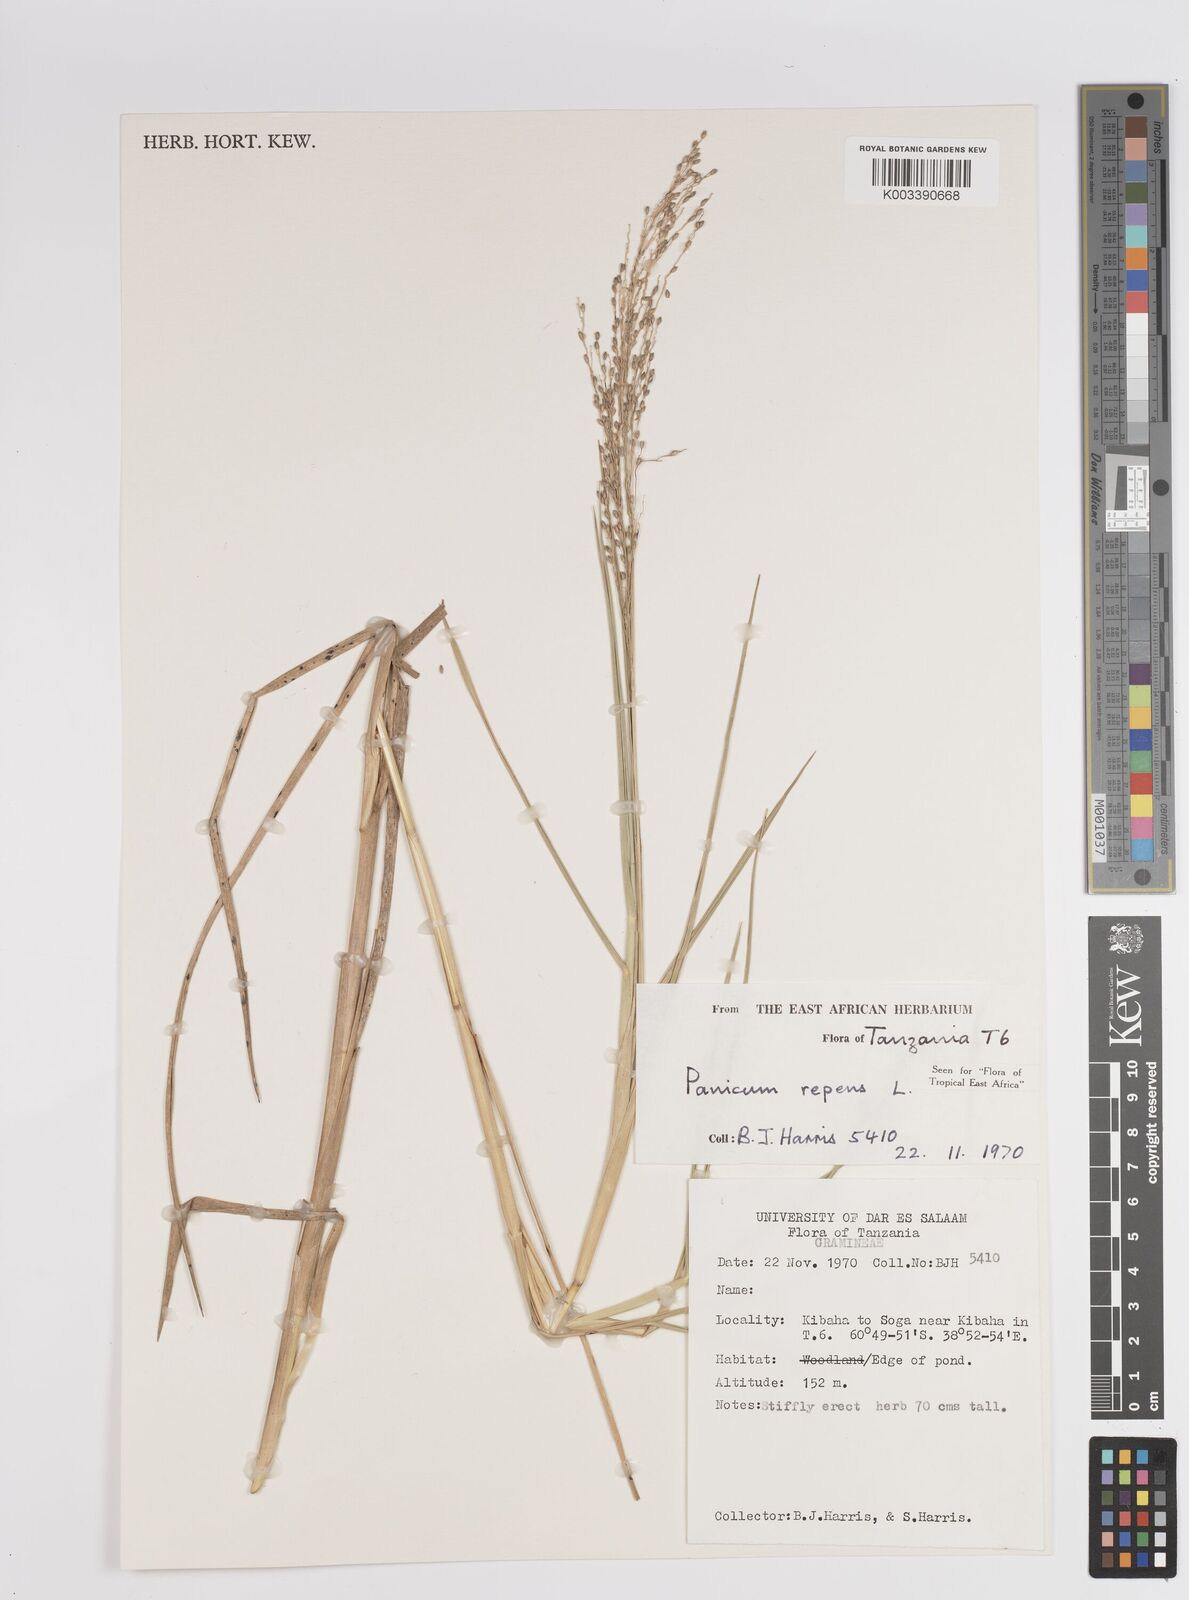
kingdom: Plantae
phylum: Tracheophyta
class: Liliopsida
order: Poales
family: Poaceae
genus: Panicum
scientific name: Panicum repens
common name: Torpedo grass
